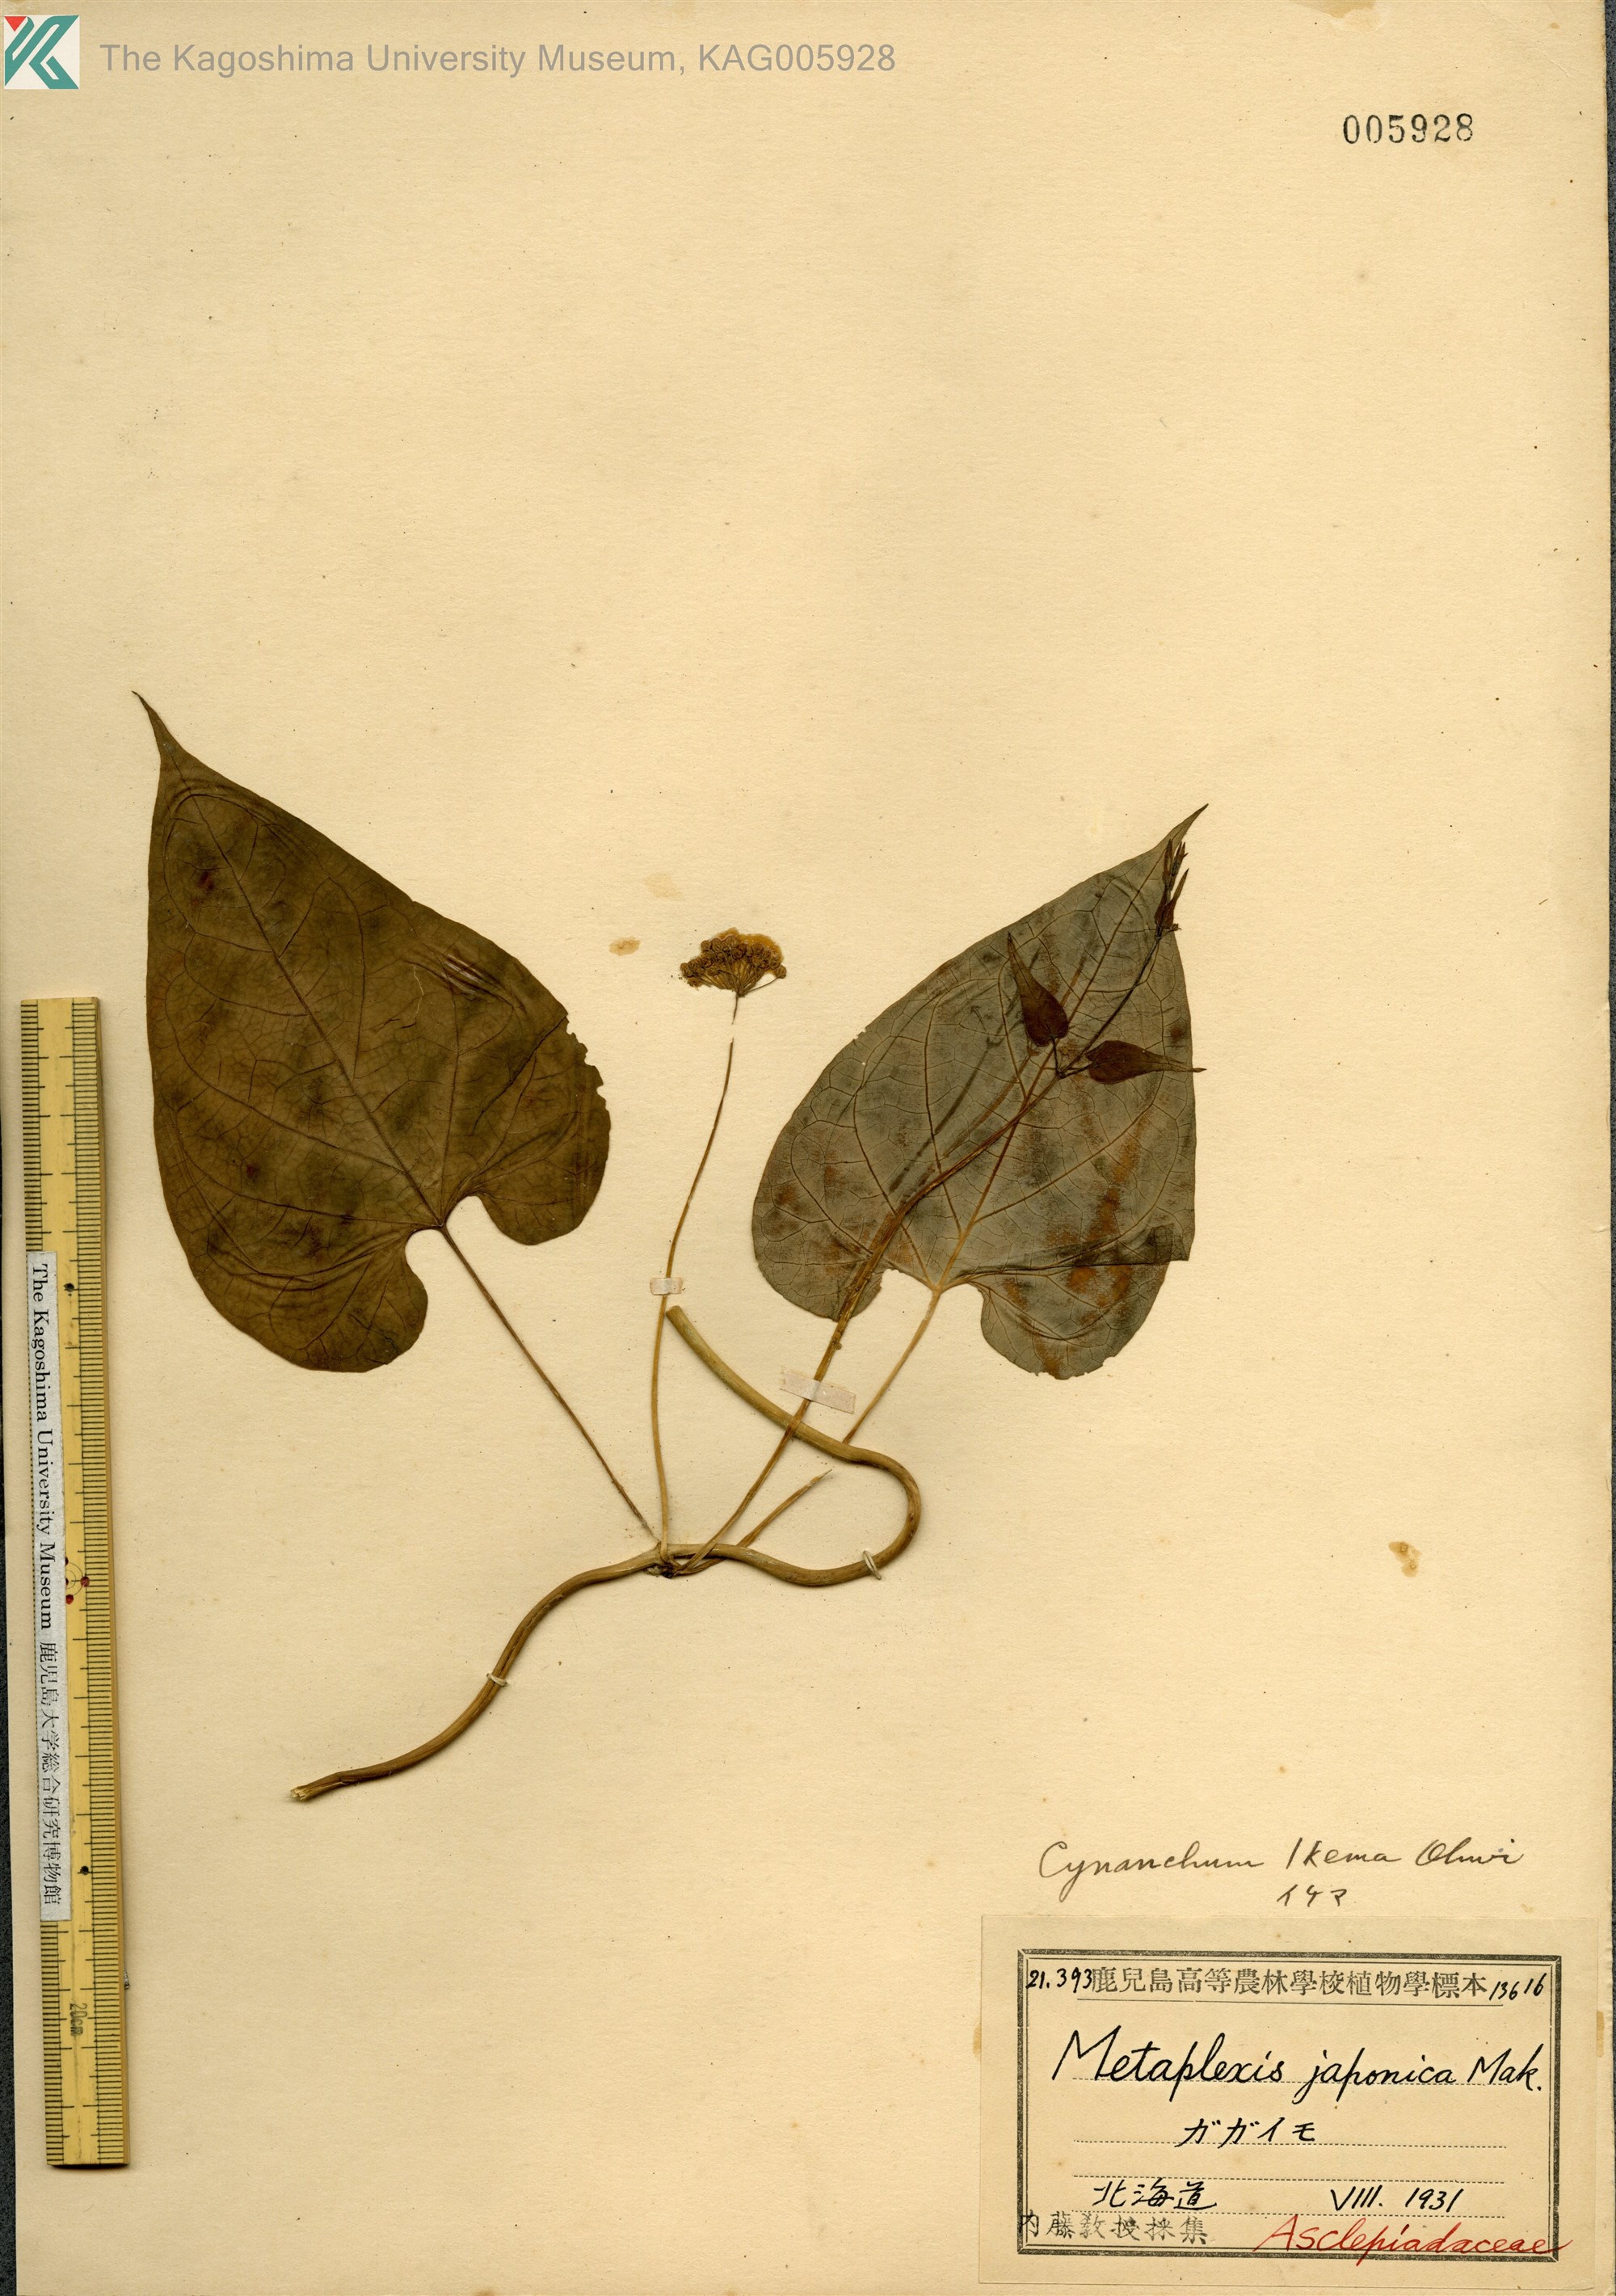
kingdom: Plantae
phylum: Tracheophyta
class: Magnoliopsida
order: Gentianales
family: Apocynaceae
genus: Orthosia
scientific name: Orthosia virgata
